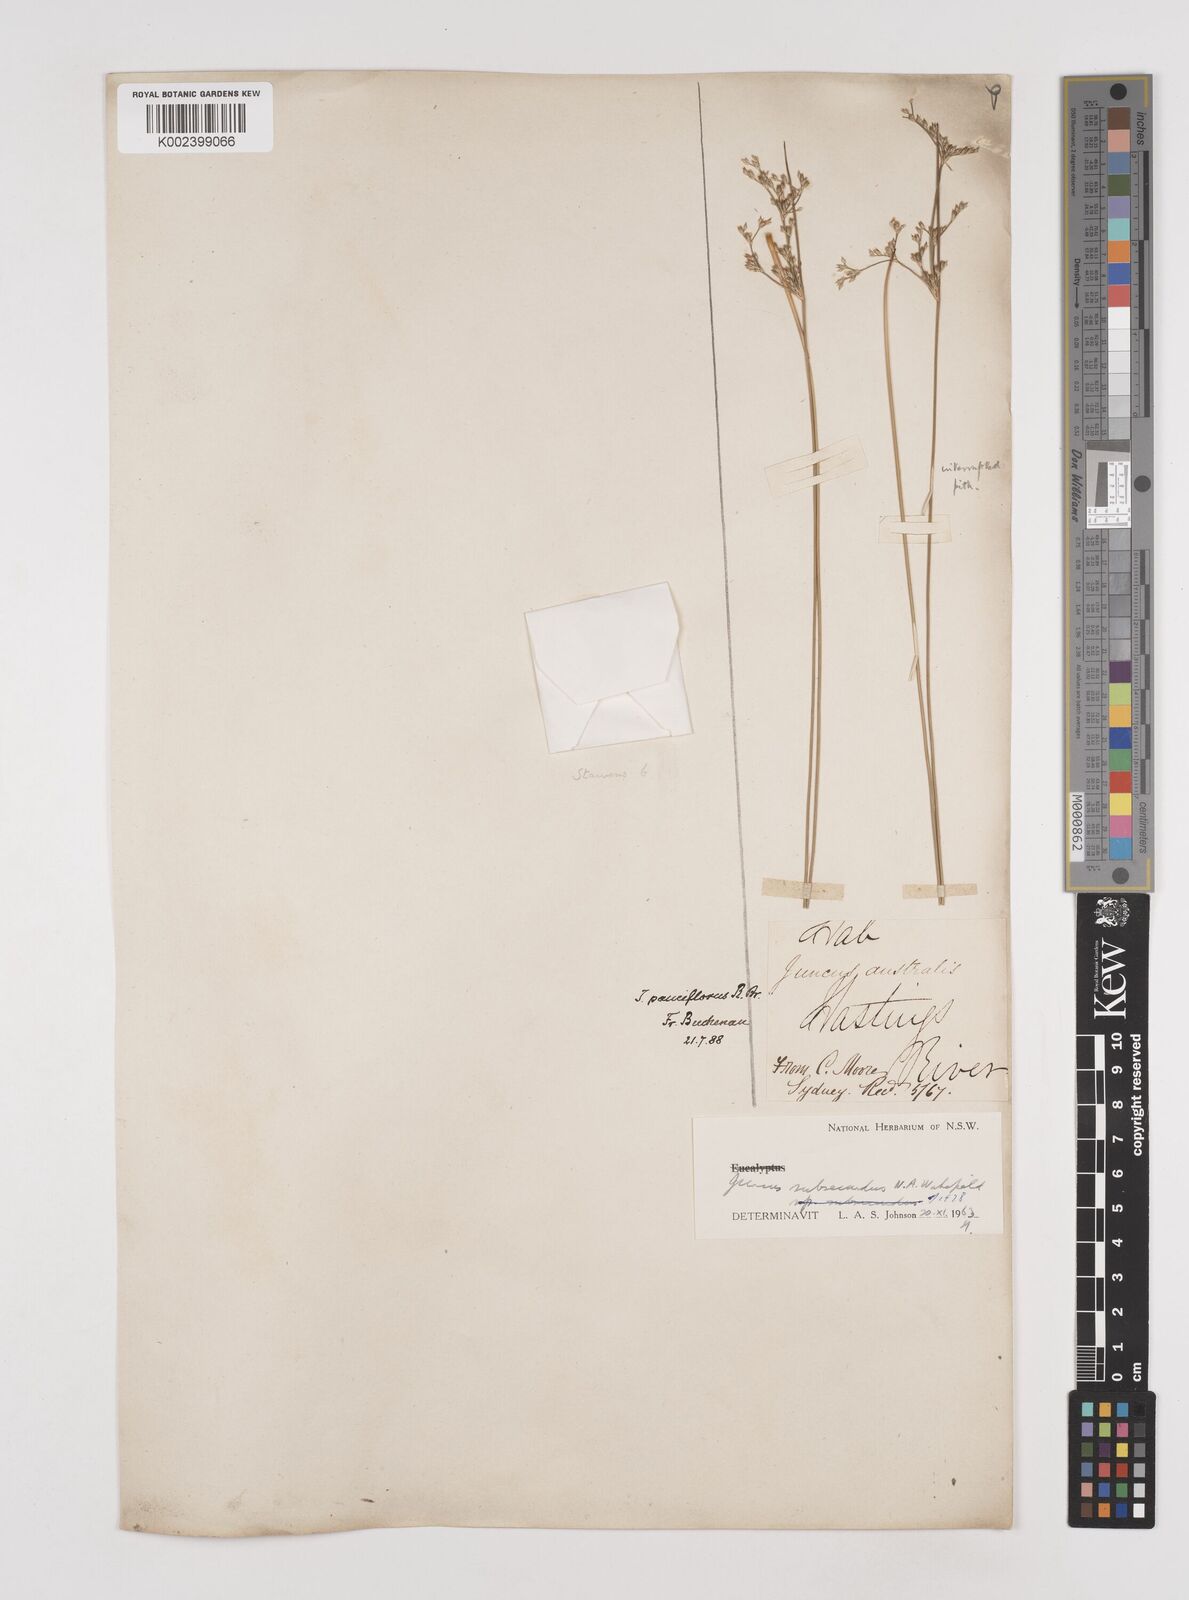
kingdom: Plantae
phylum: Tracheophyta
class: Liliopsida
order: Poales
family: Juncaceae
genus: Juncus
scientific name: Juncus subsecundus
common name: Fingered rush
